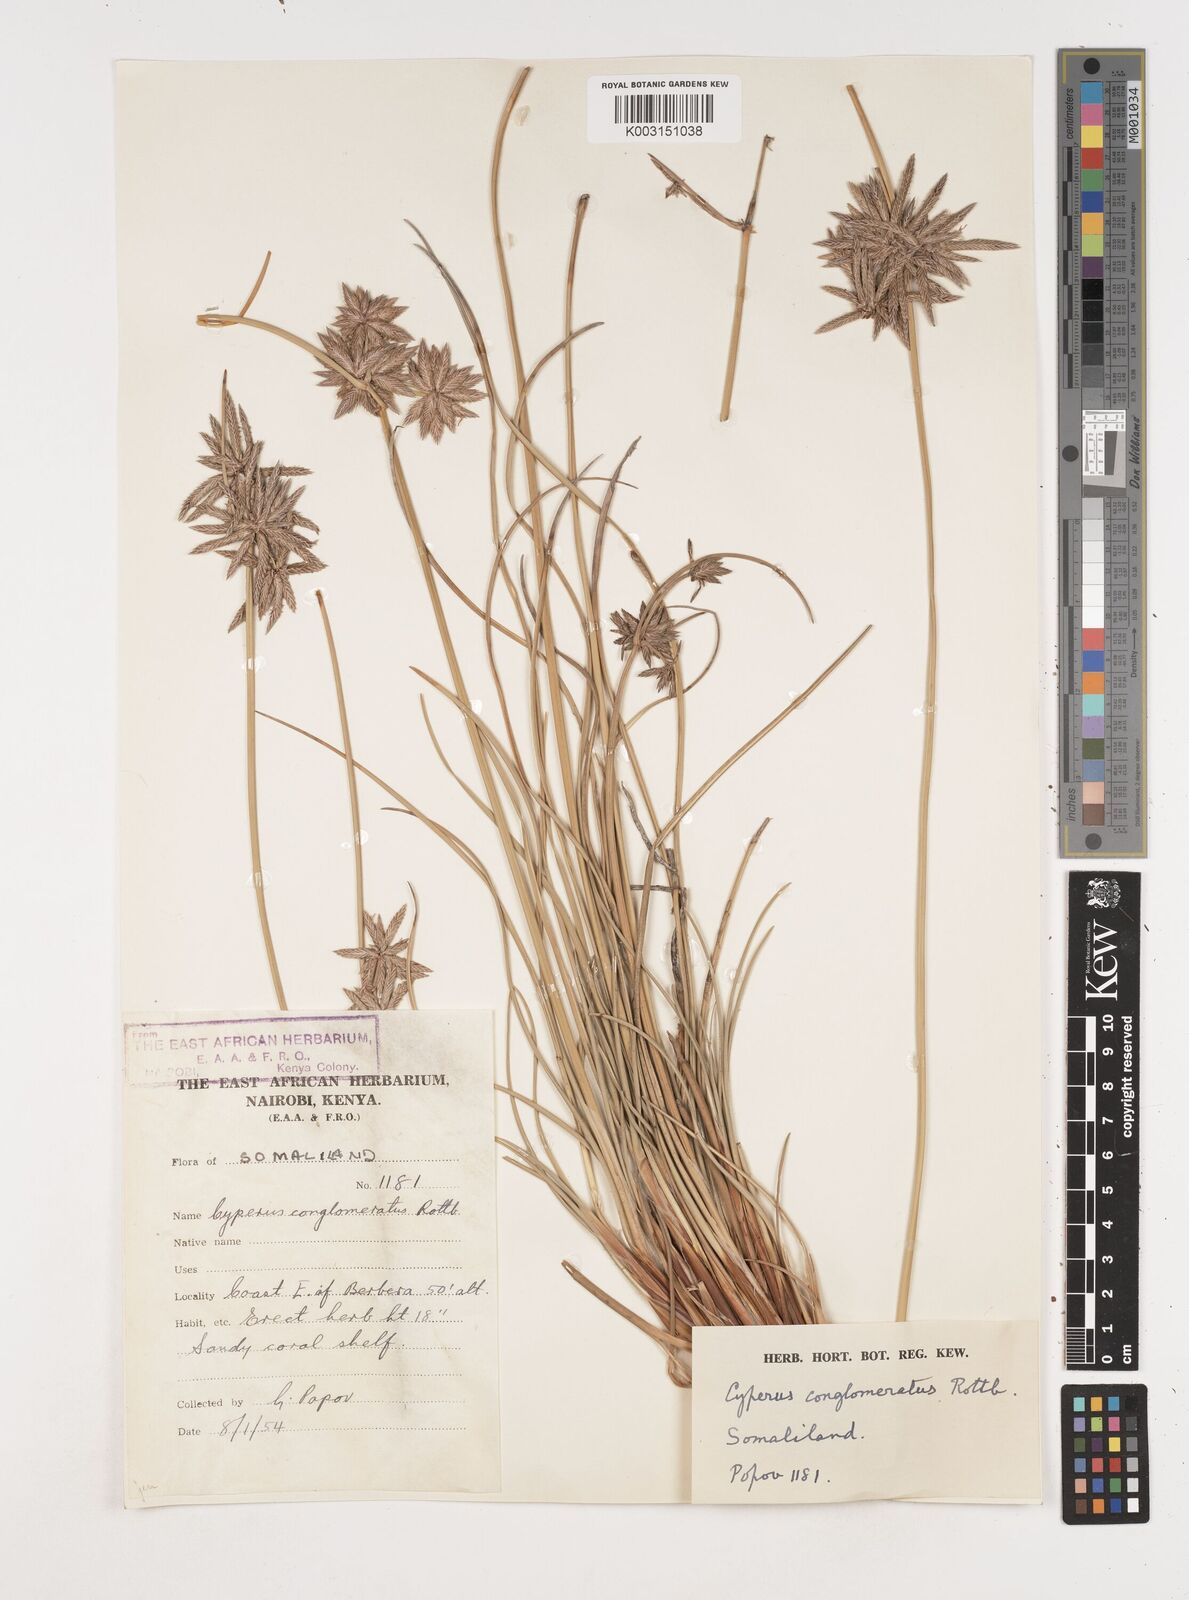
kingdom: Plantae
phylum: Tracheophyta
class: Liliopsida
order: Poales
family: Cyperaceae
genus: Cyperus
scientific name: Cyperus conglomeratus
